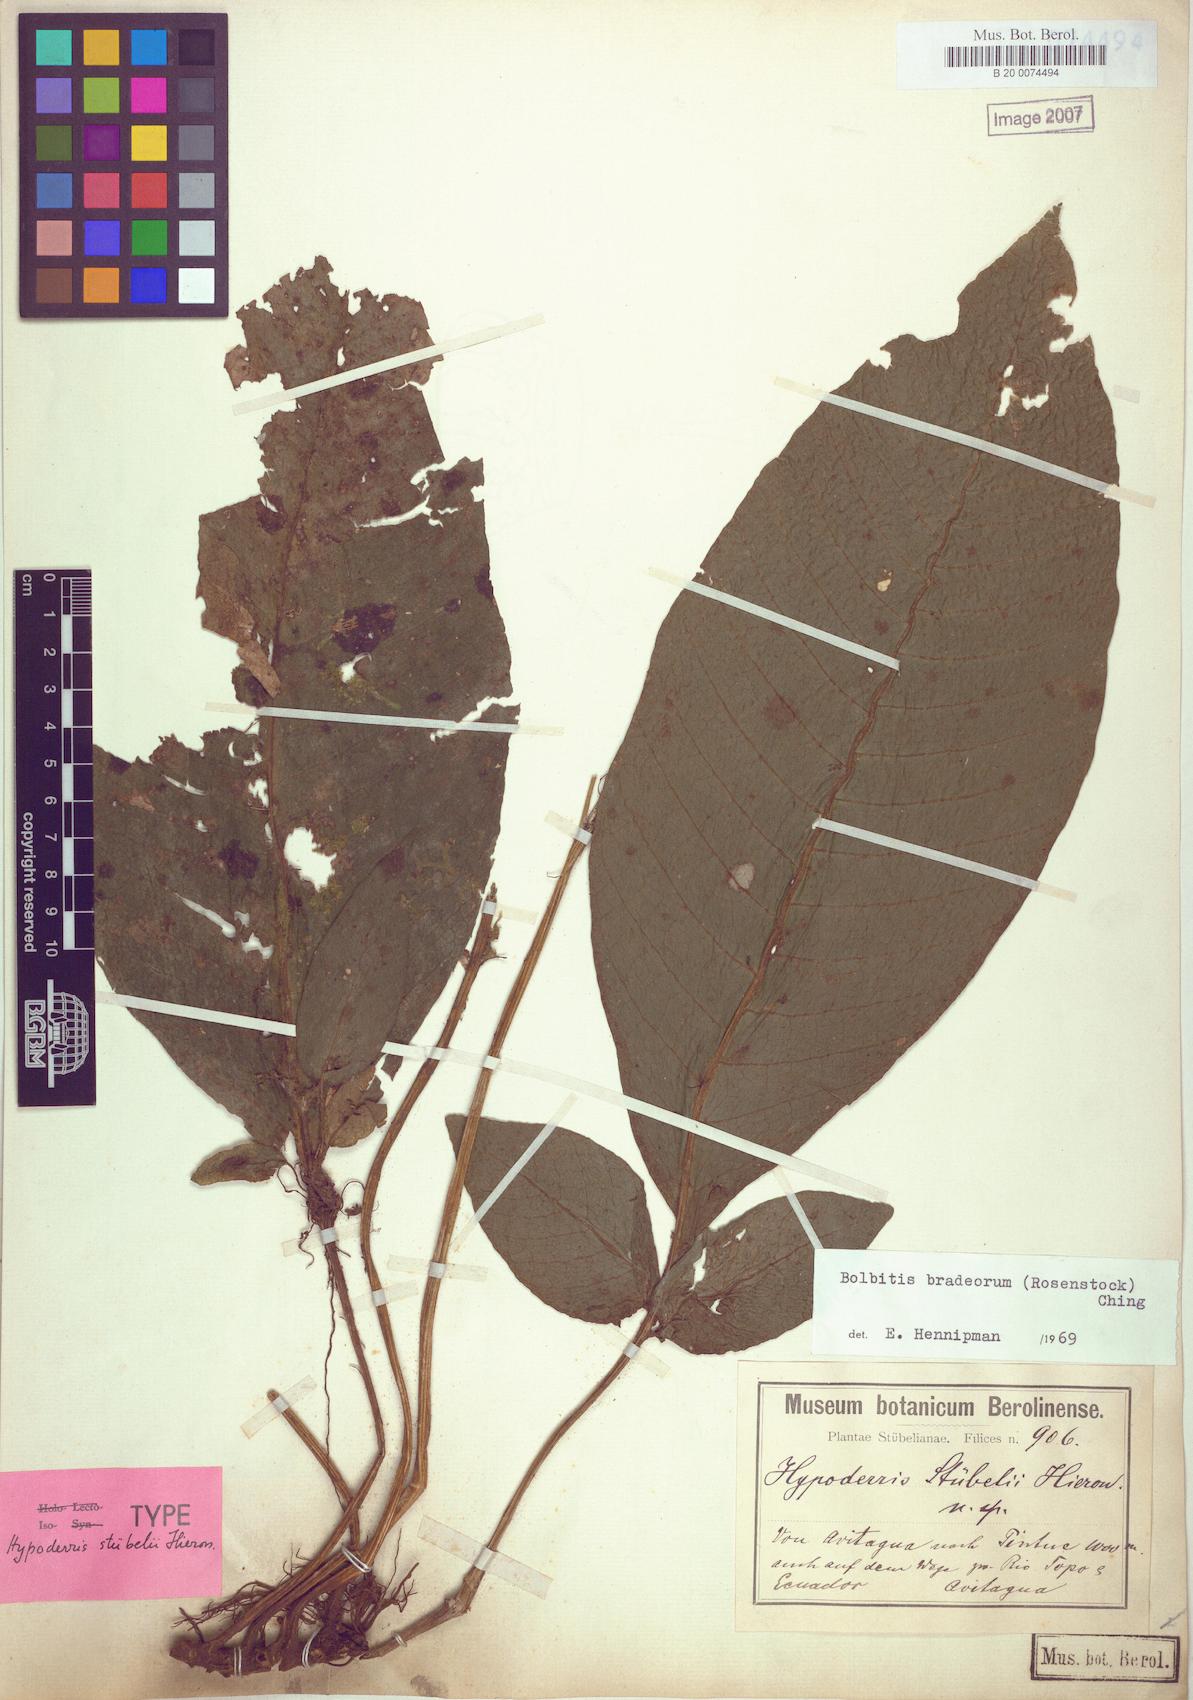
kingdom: Plantae
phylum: Tracheophyta
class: Polypodiopsida
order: Polypodiales
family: Dennstaedtiaceae
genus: Hypolepis
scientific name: Hypolepis stuebelii
